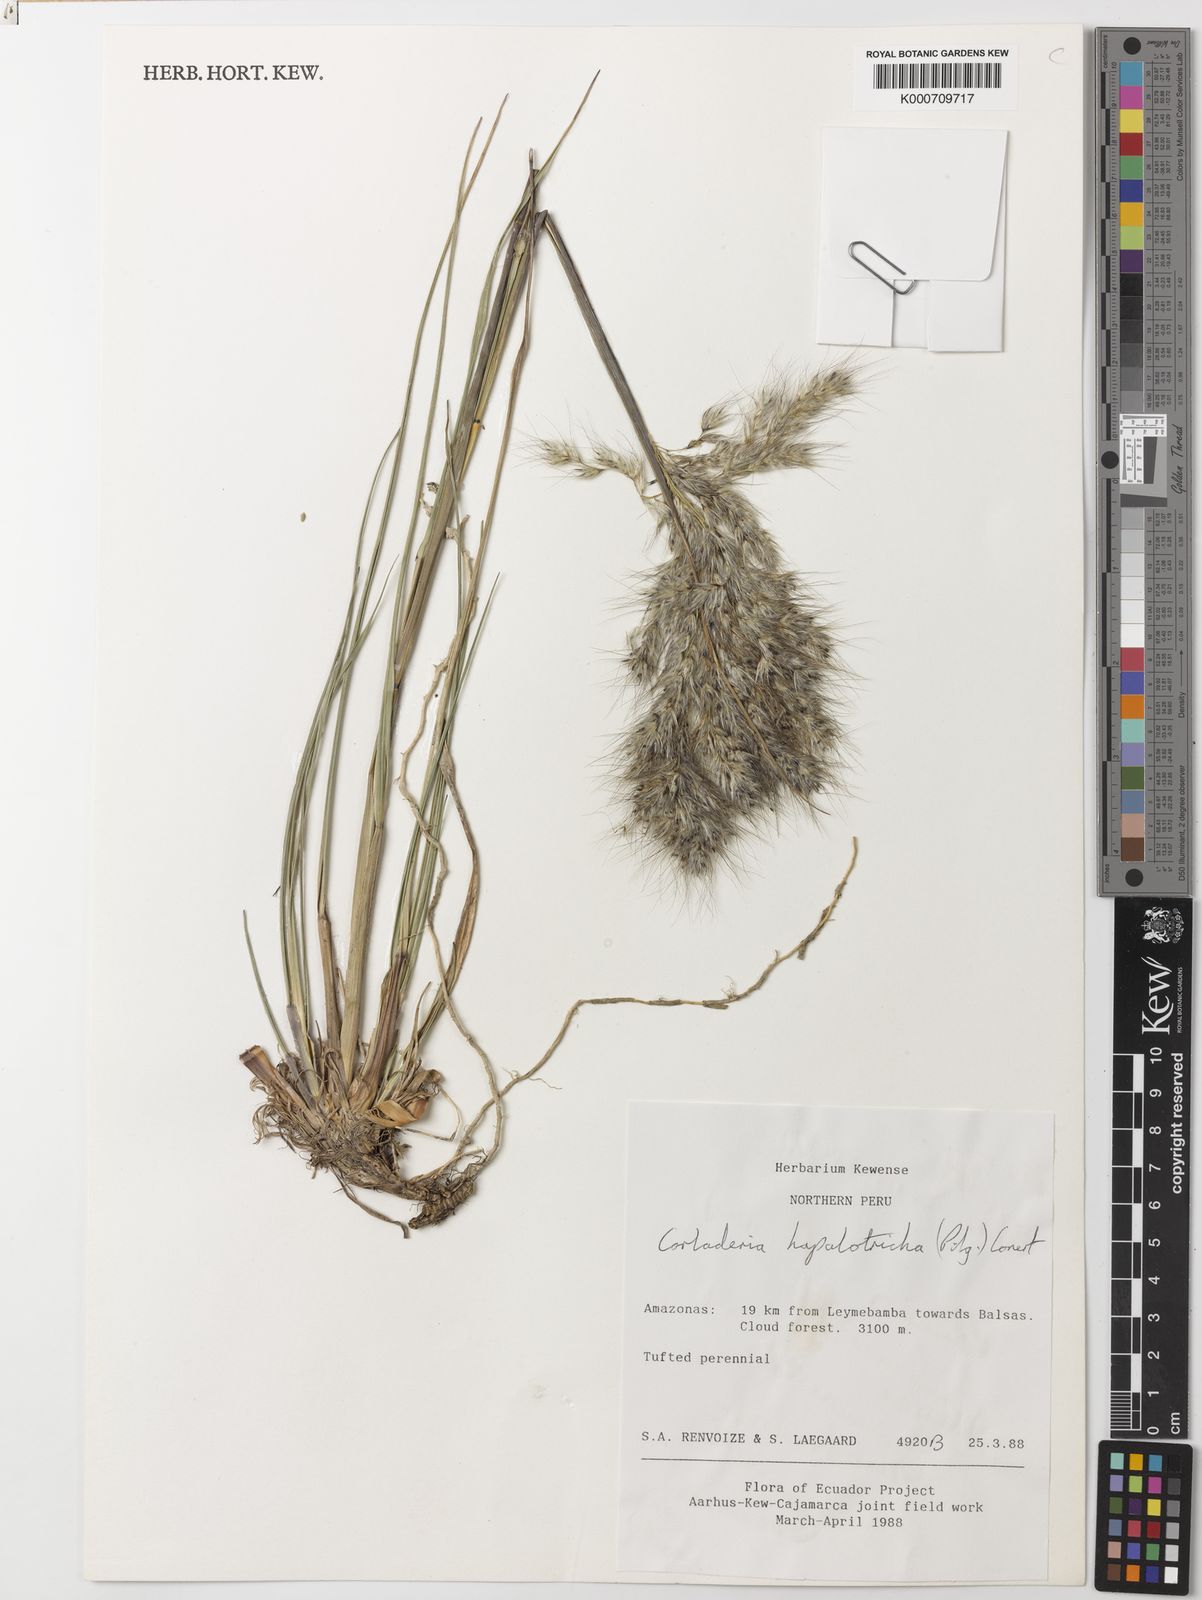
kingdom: Plantae
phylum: Tracheophyta
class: Liliopsida
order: Poales
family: Poaceae
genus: Cortaderia
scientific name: Cortaderia hapalotricha
